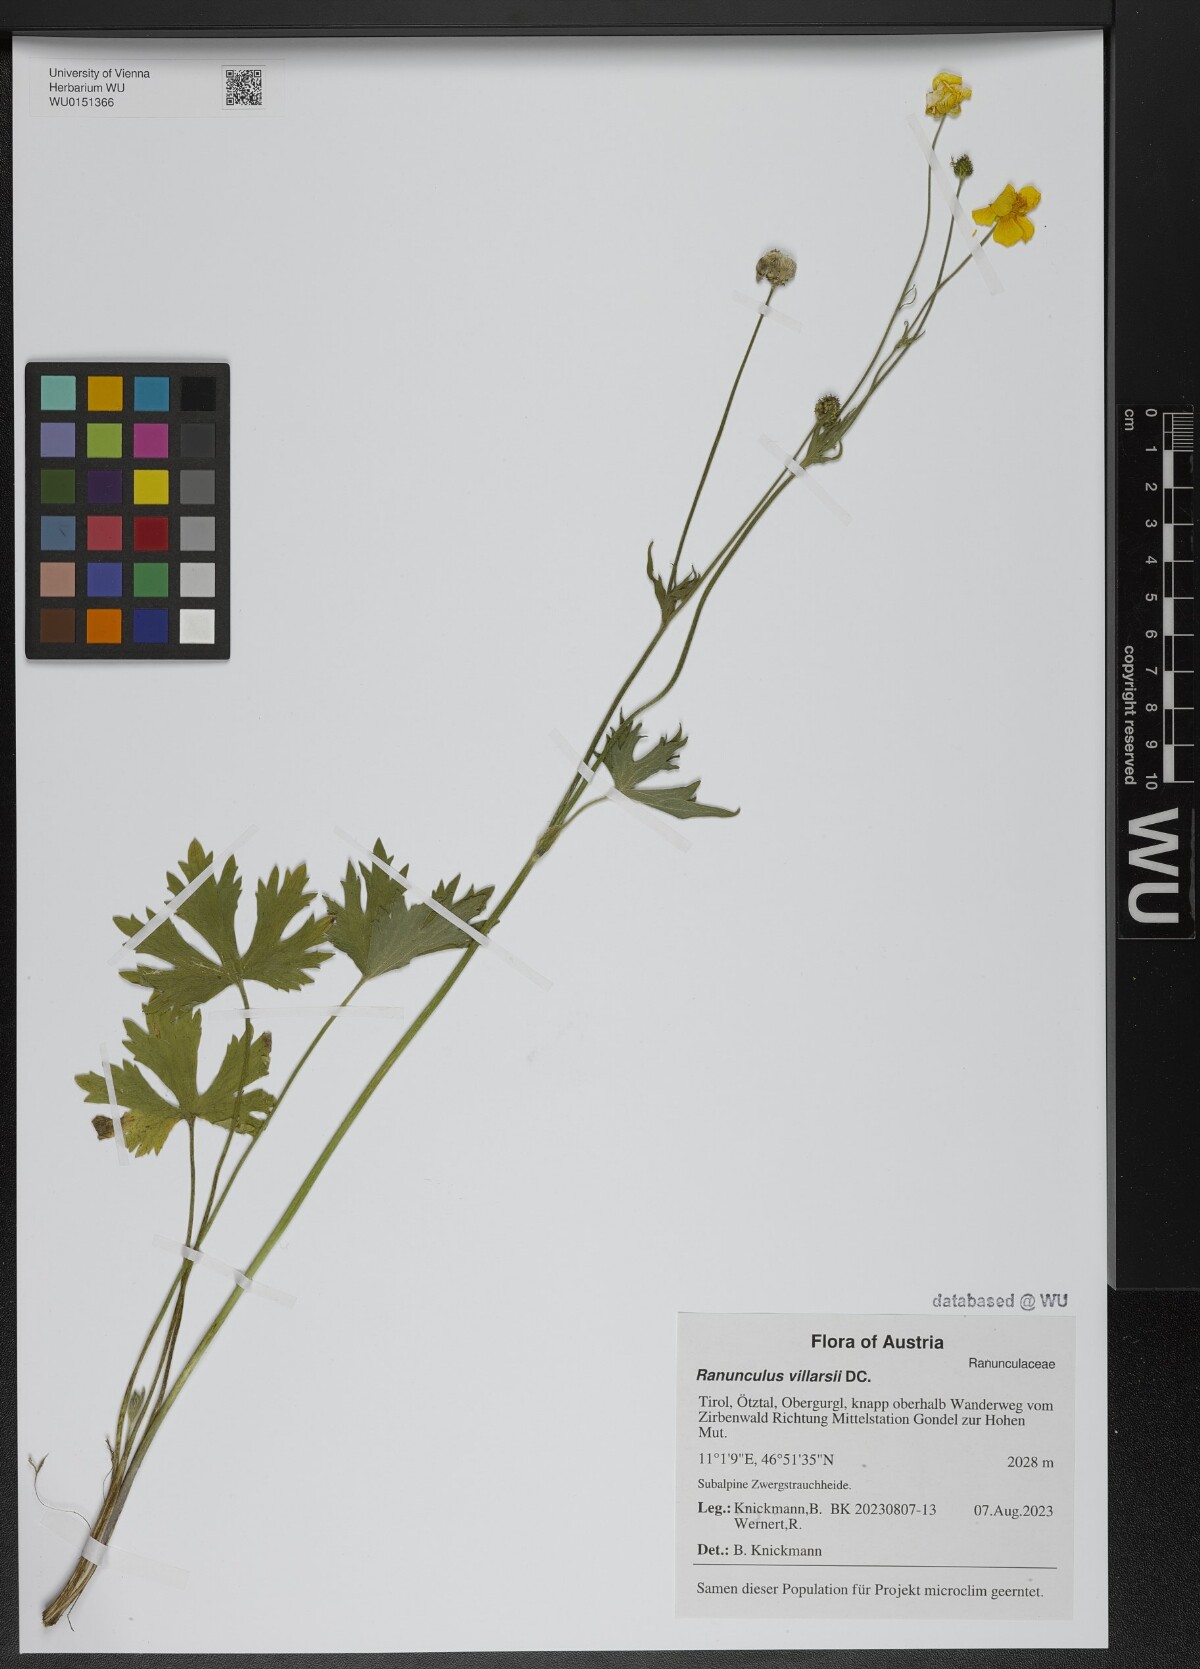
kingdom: Plantae
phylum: Tracheophyta
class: Magnoliopsida
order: Ranunculales
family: Ranunculaceae
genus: Ranunculus
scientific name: Ranunculus villarsii
